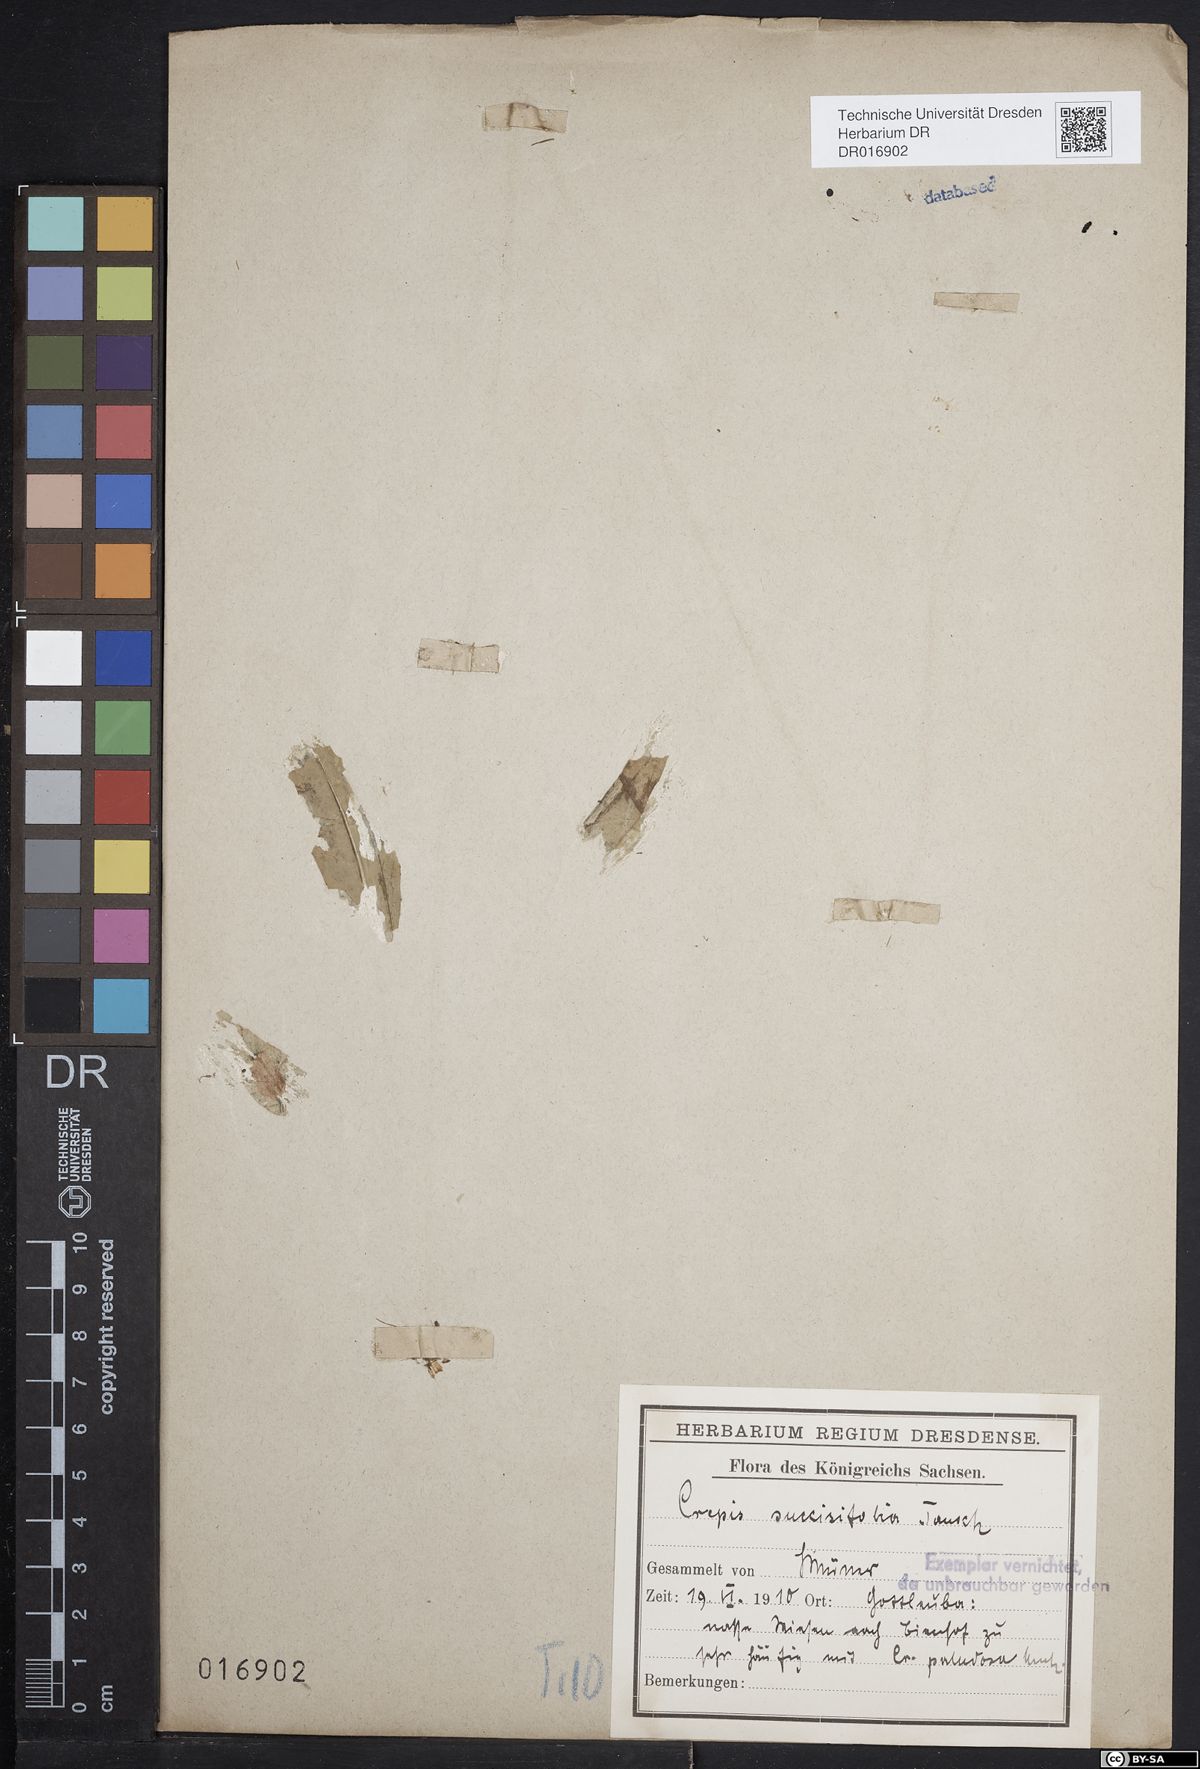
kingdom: Plantae
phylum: Tracheophyta
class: Magnoliopsida
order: Asterales
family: Asteraceae
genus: Crepis
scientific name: Crepis mollis
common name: Northern hawk's-beard
